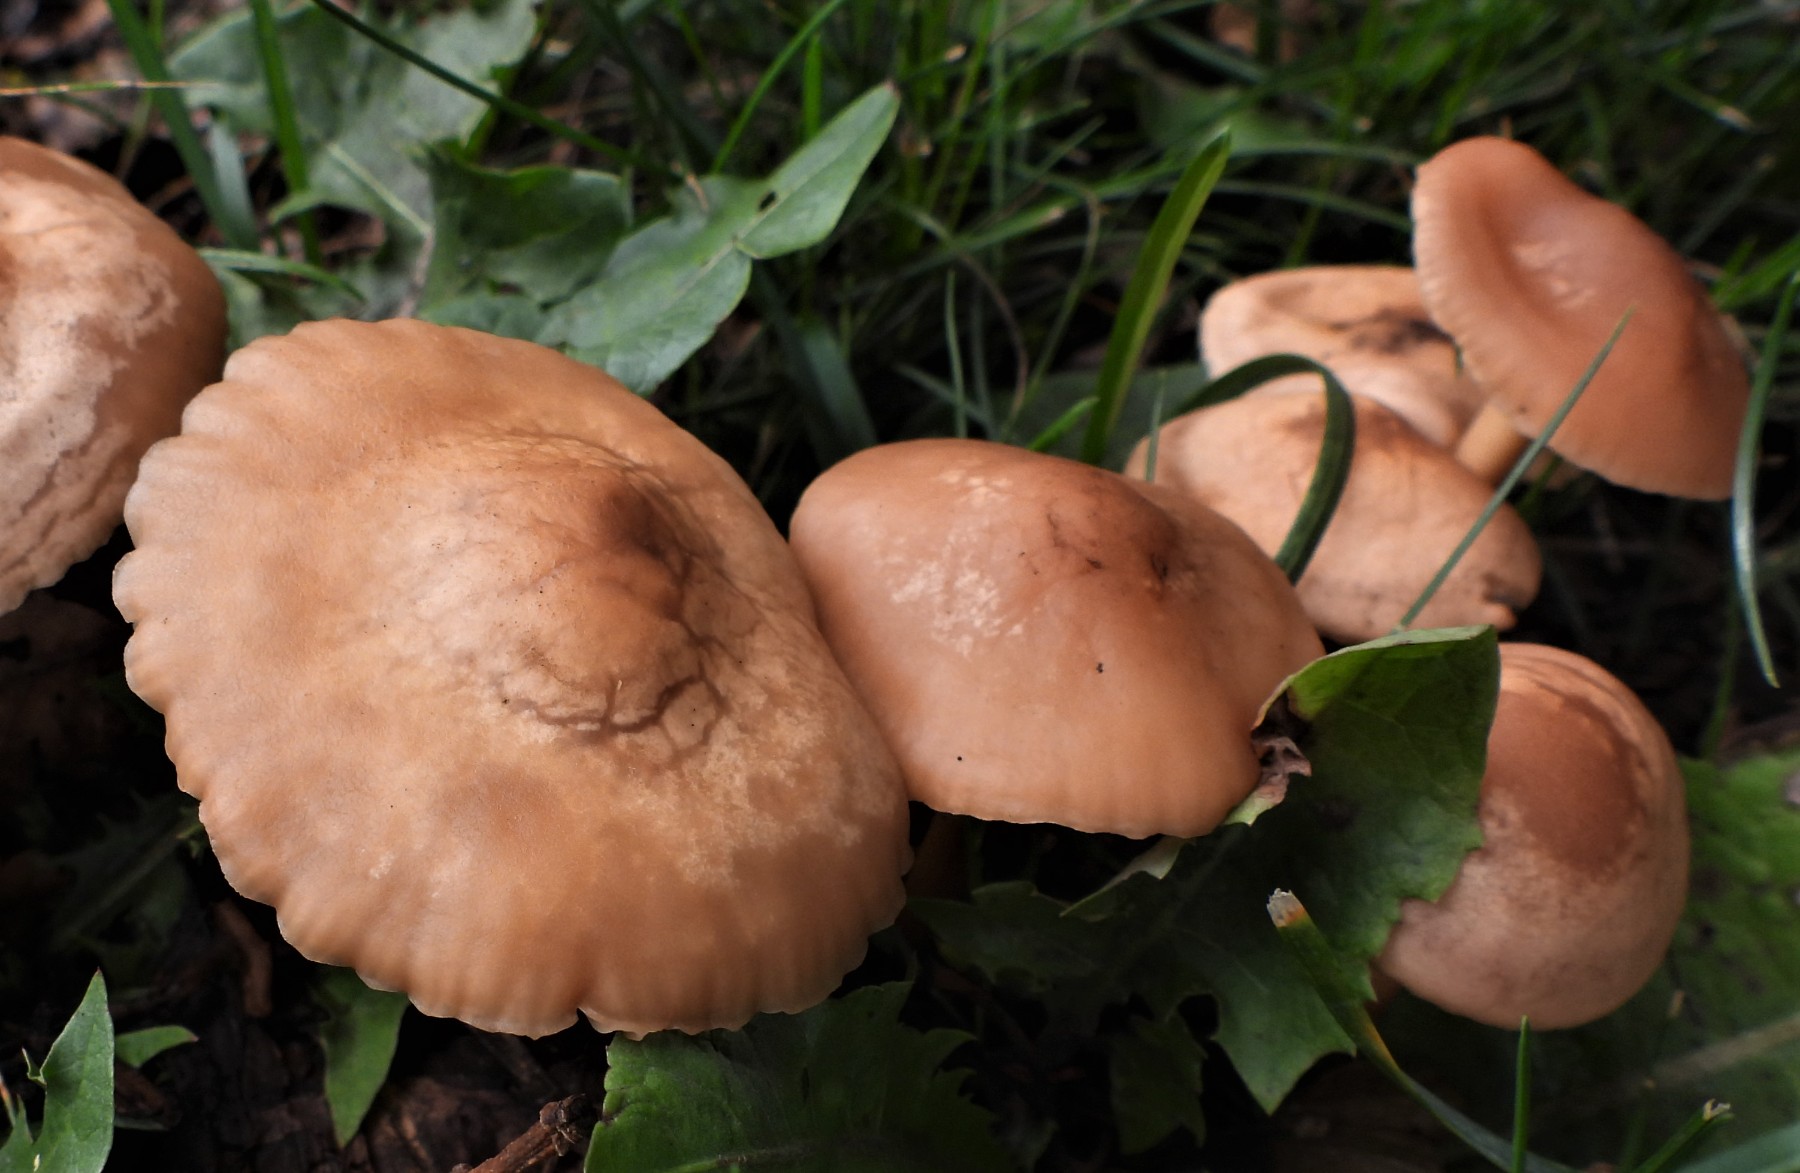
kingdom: Fungi
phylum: Basidiomycota
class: Agaricomycetes
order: Agaricales
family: Marasmiaceae
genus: Marasmius
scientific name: Marasmius oreades
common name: elledans-bruskhat
